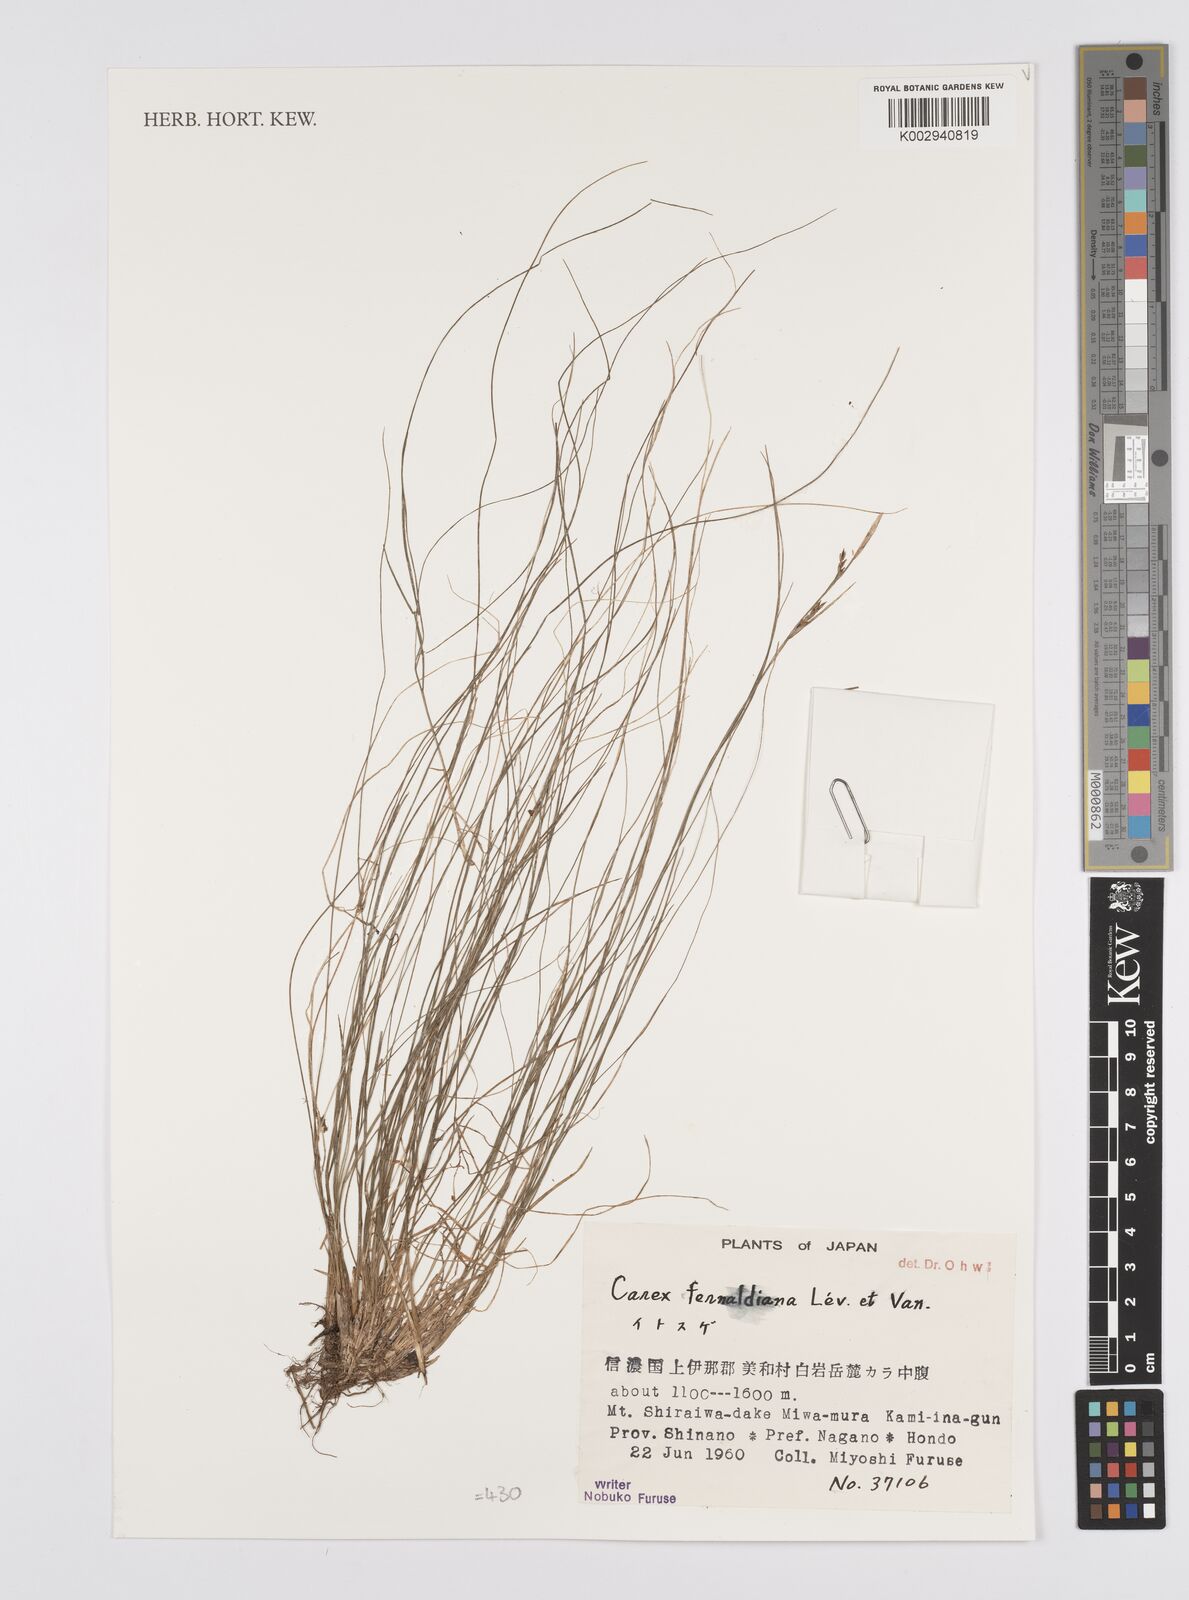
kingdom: Plantae
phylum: Tracheophyta
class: Liliopsida
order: Poales
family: Cyperaceae
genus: Carex
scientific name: Carex breviculmis
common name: Asian shortstem sedge
